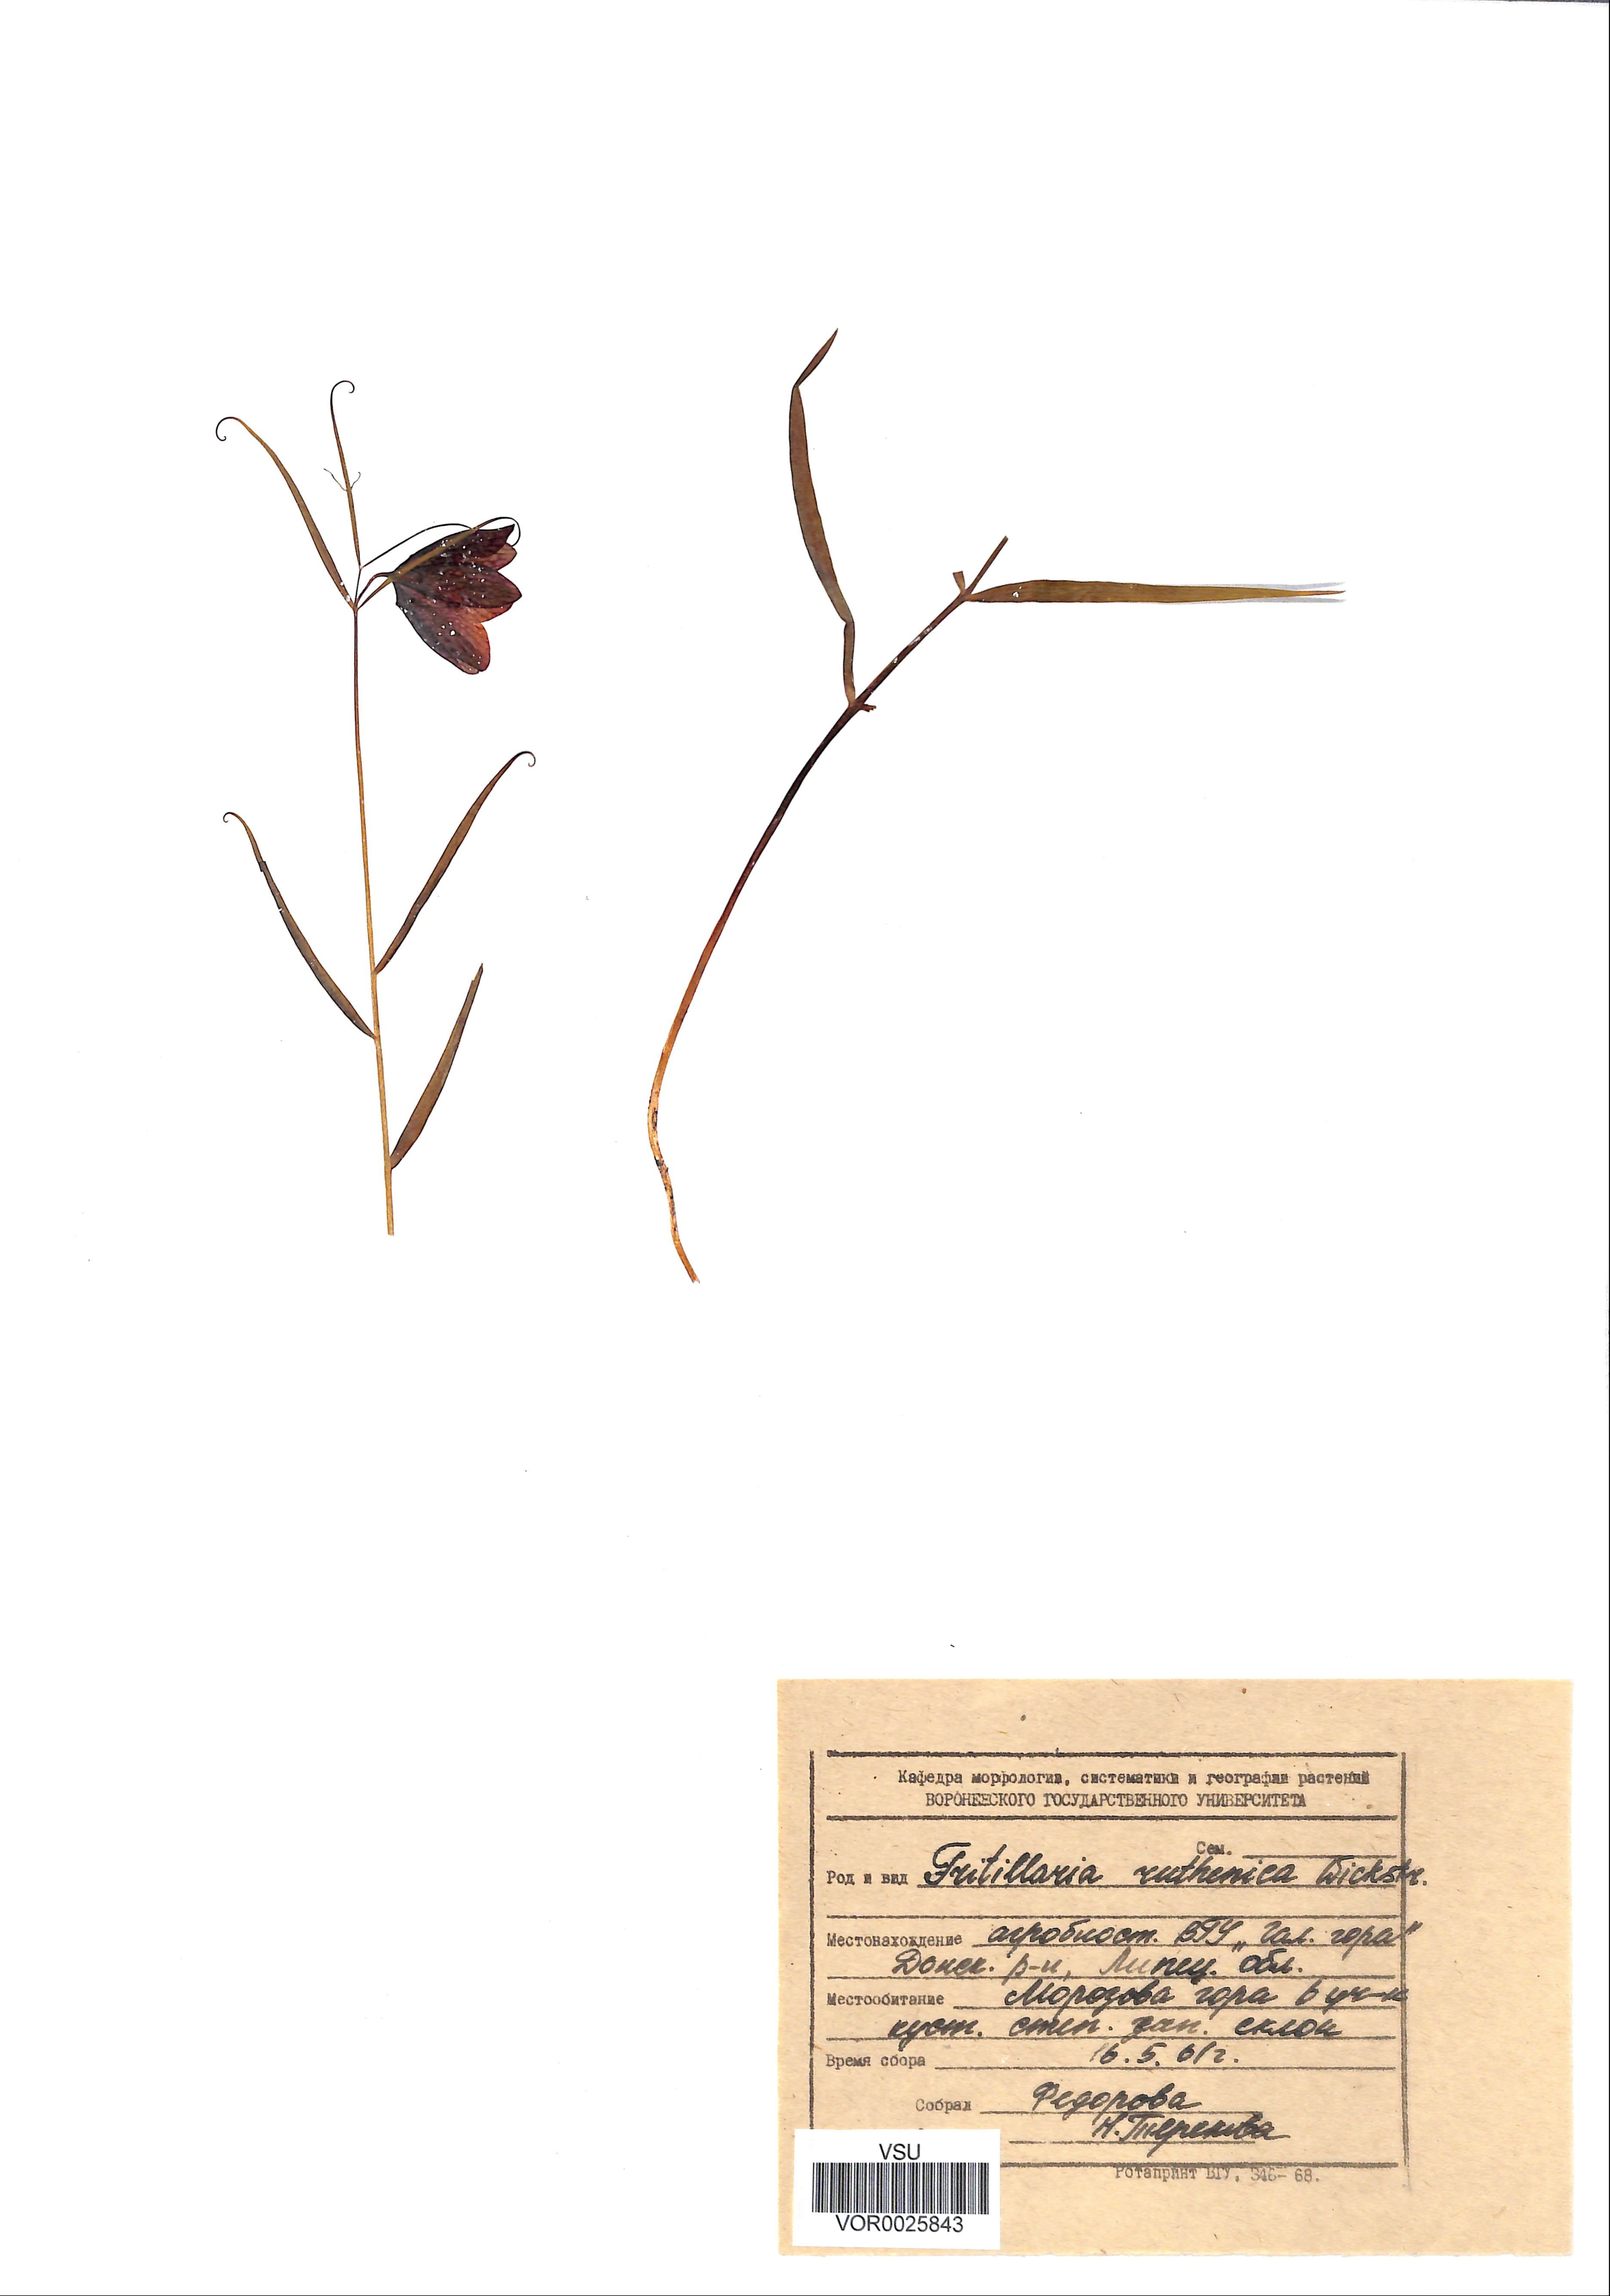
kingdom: Plantae
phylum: Tracheophyta
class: Liliopsida
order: Liliales
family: Liliaceae
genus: Fritillaria
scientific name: Fritillaria ruthenica
